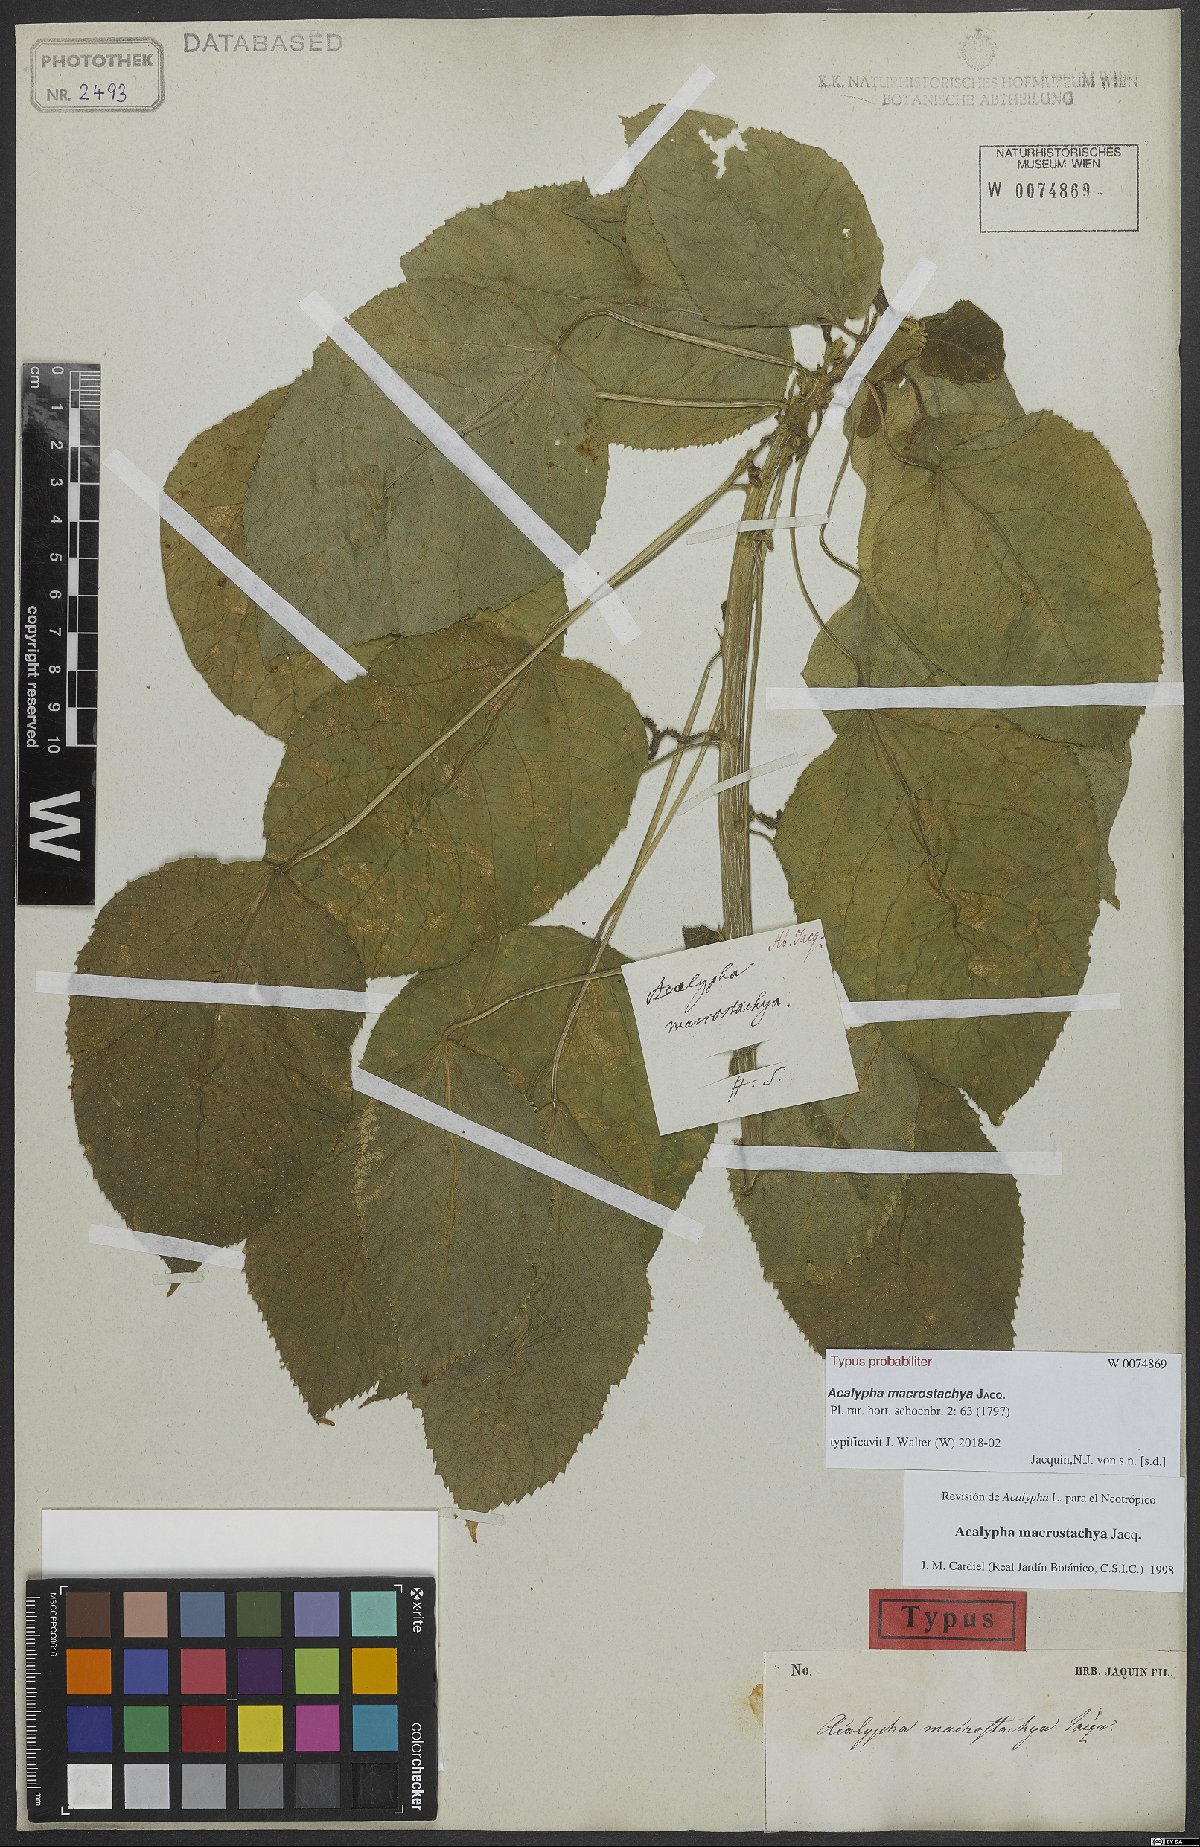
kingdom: Plantae
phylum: Tracheophyta
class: Magnoliopsida
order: Malpighiales
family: Euphorbiaceae
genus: Acalypha
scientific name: Acalypha macrostachya
